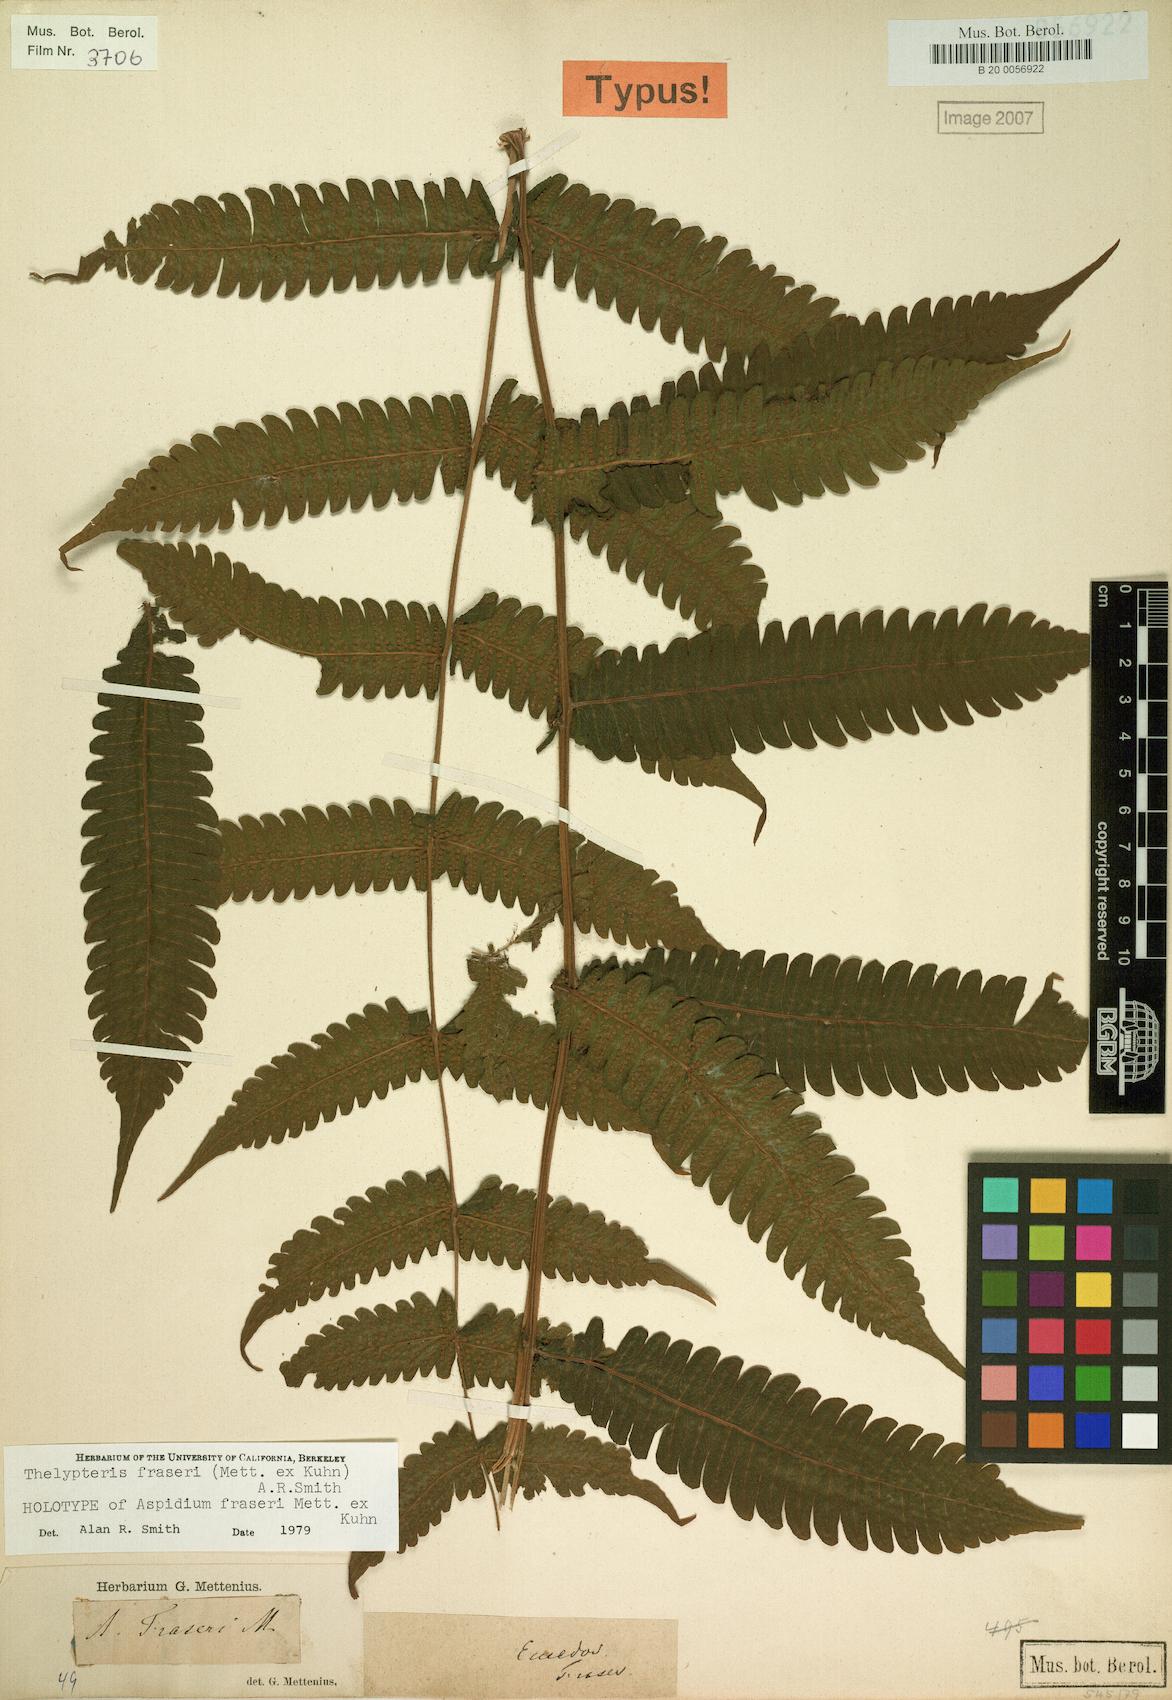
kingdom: Plantae
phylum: Tracheophyta
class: Polypodiopsida
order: Polypodiales
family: Thelypteridaceae
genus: Goniopteris
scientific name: Goniopteris fraseri
